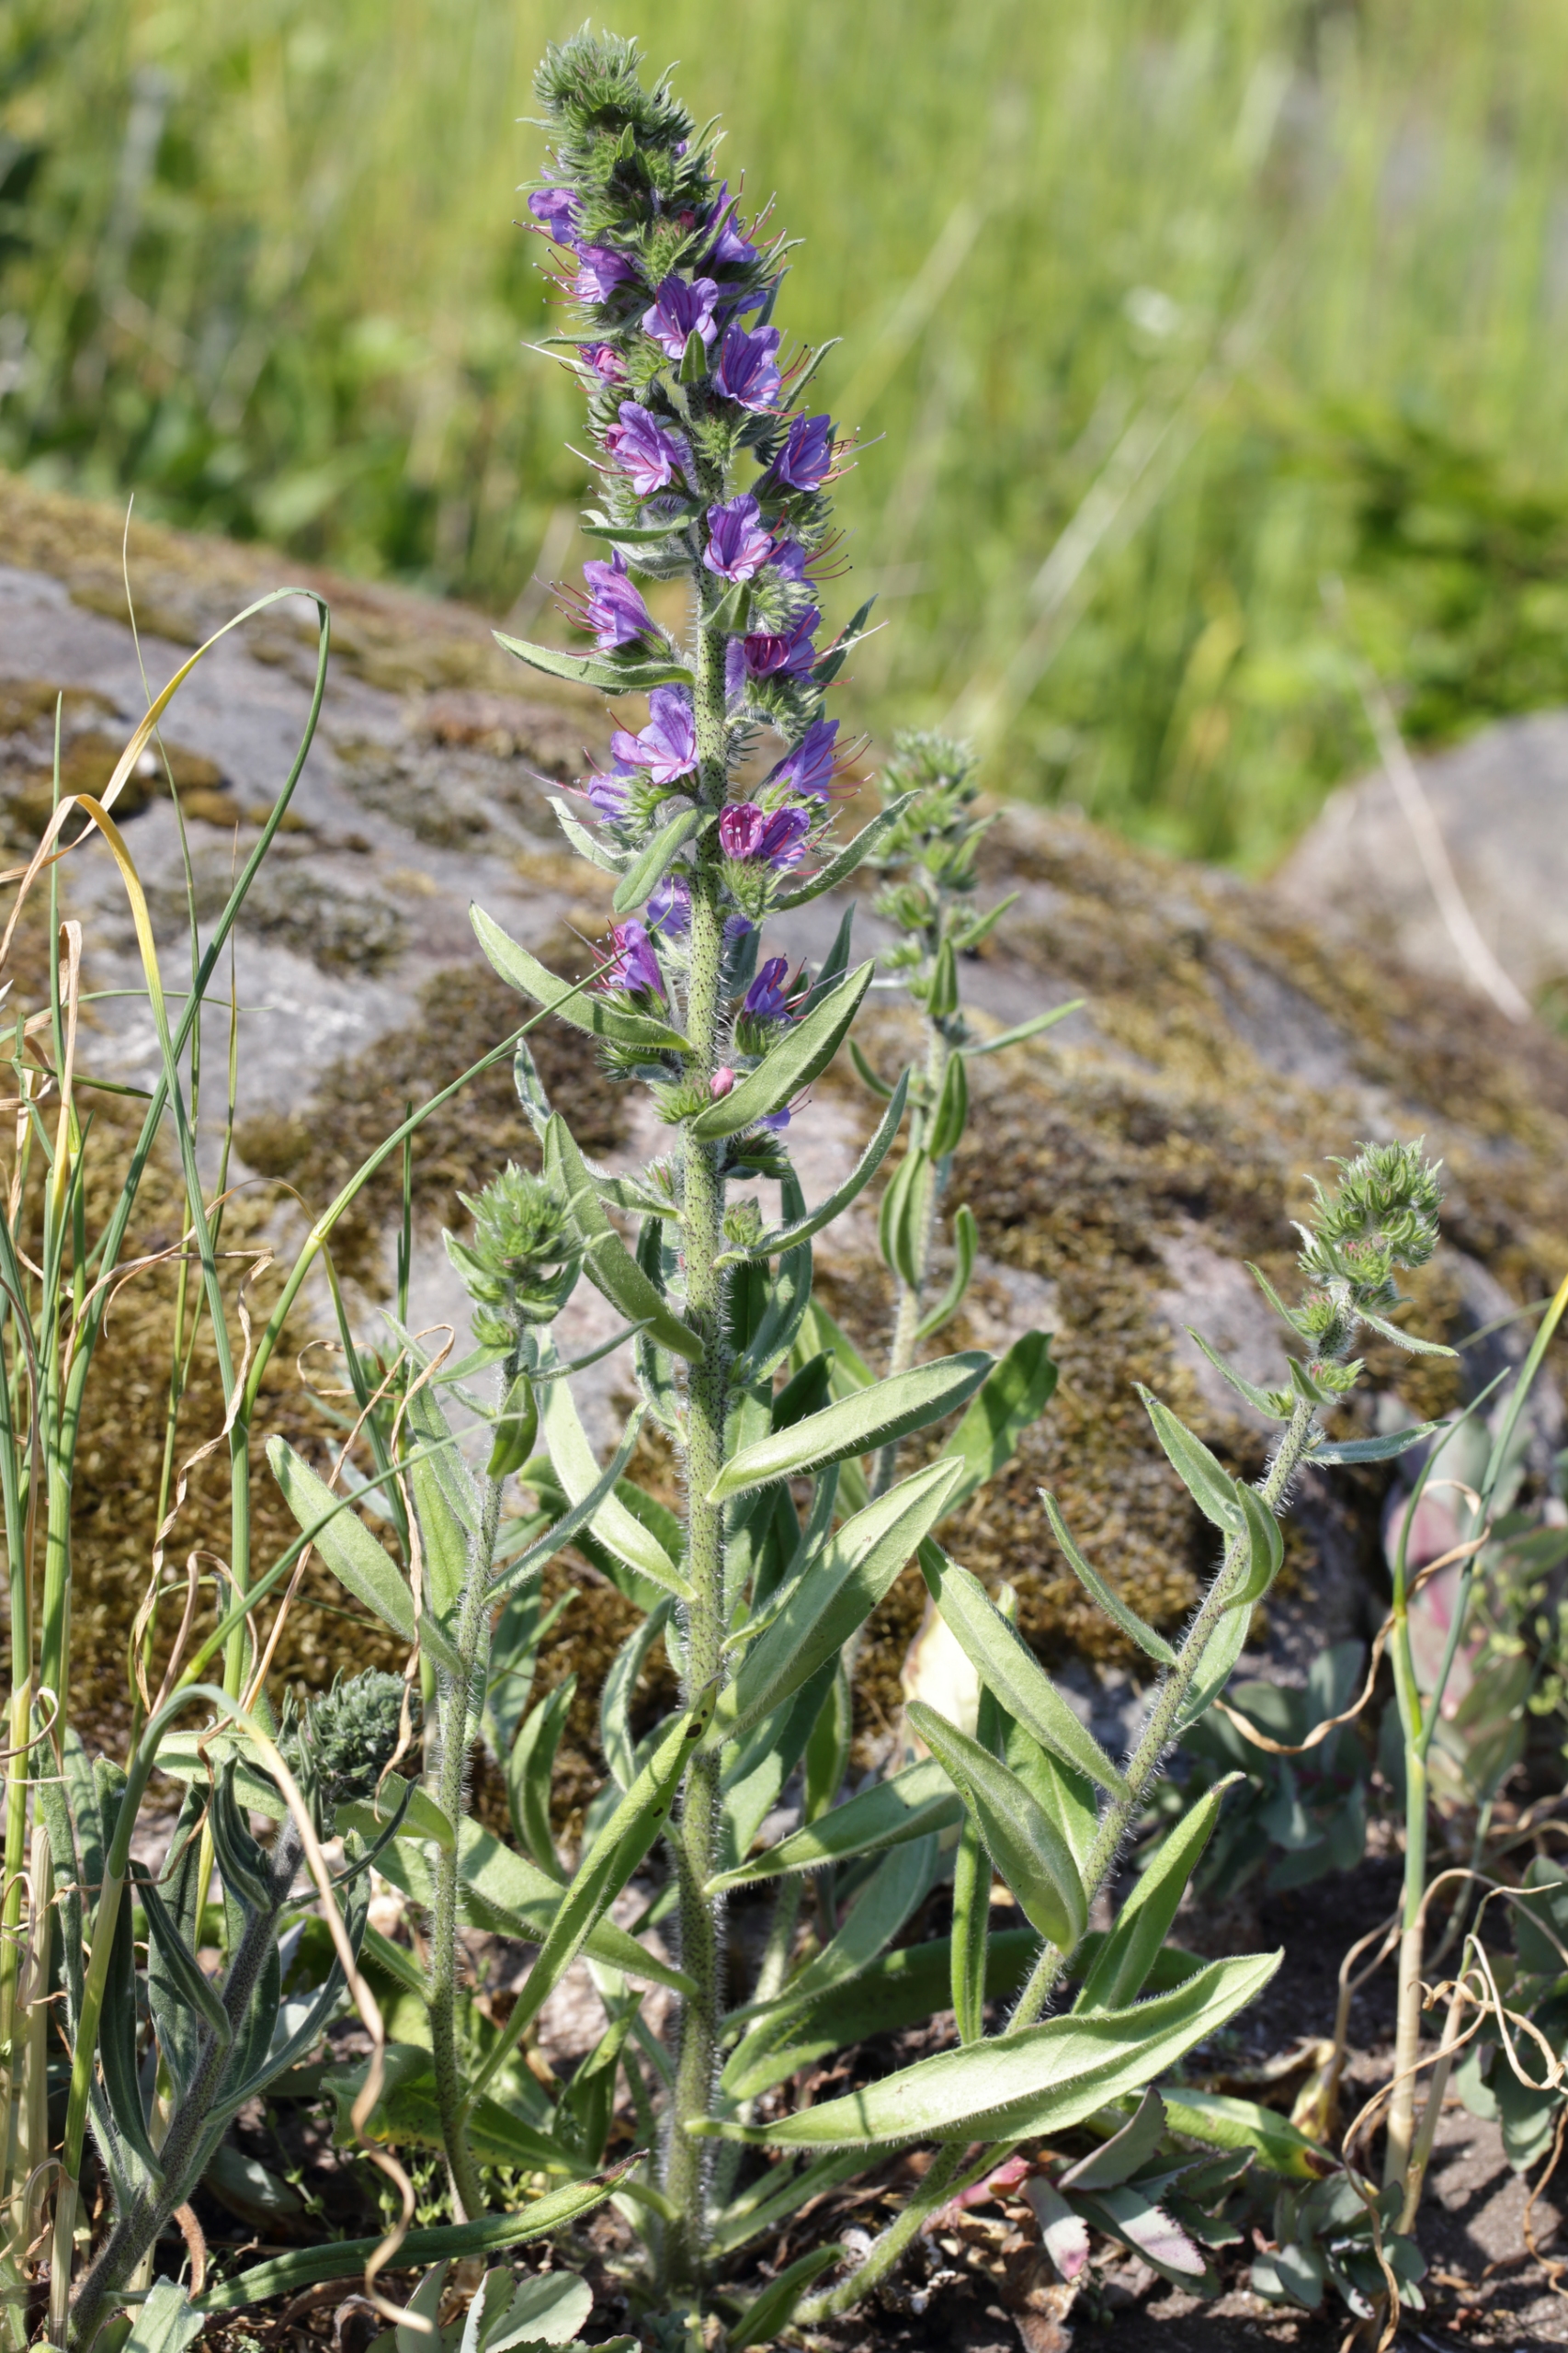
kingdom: Plantae
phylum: Tracheophyta
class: Magnoliopsida
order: Boraginales
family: Boraginaceae
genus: Echium
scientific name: Echium vulgare
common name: Slangehoved
